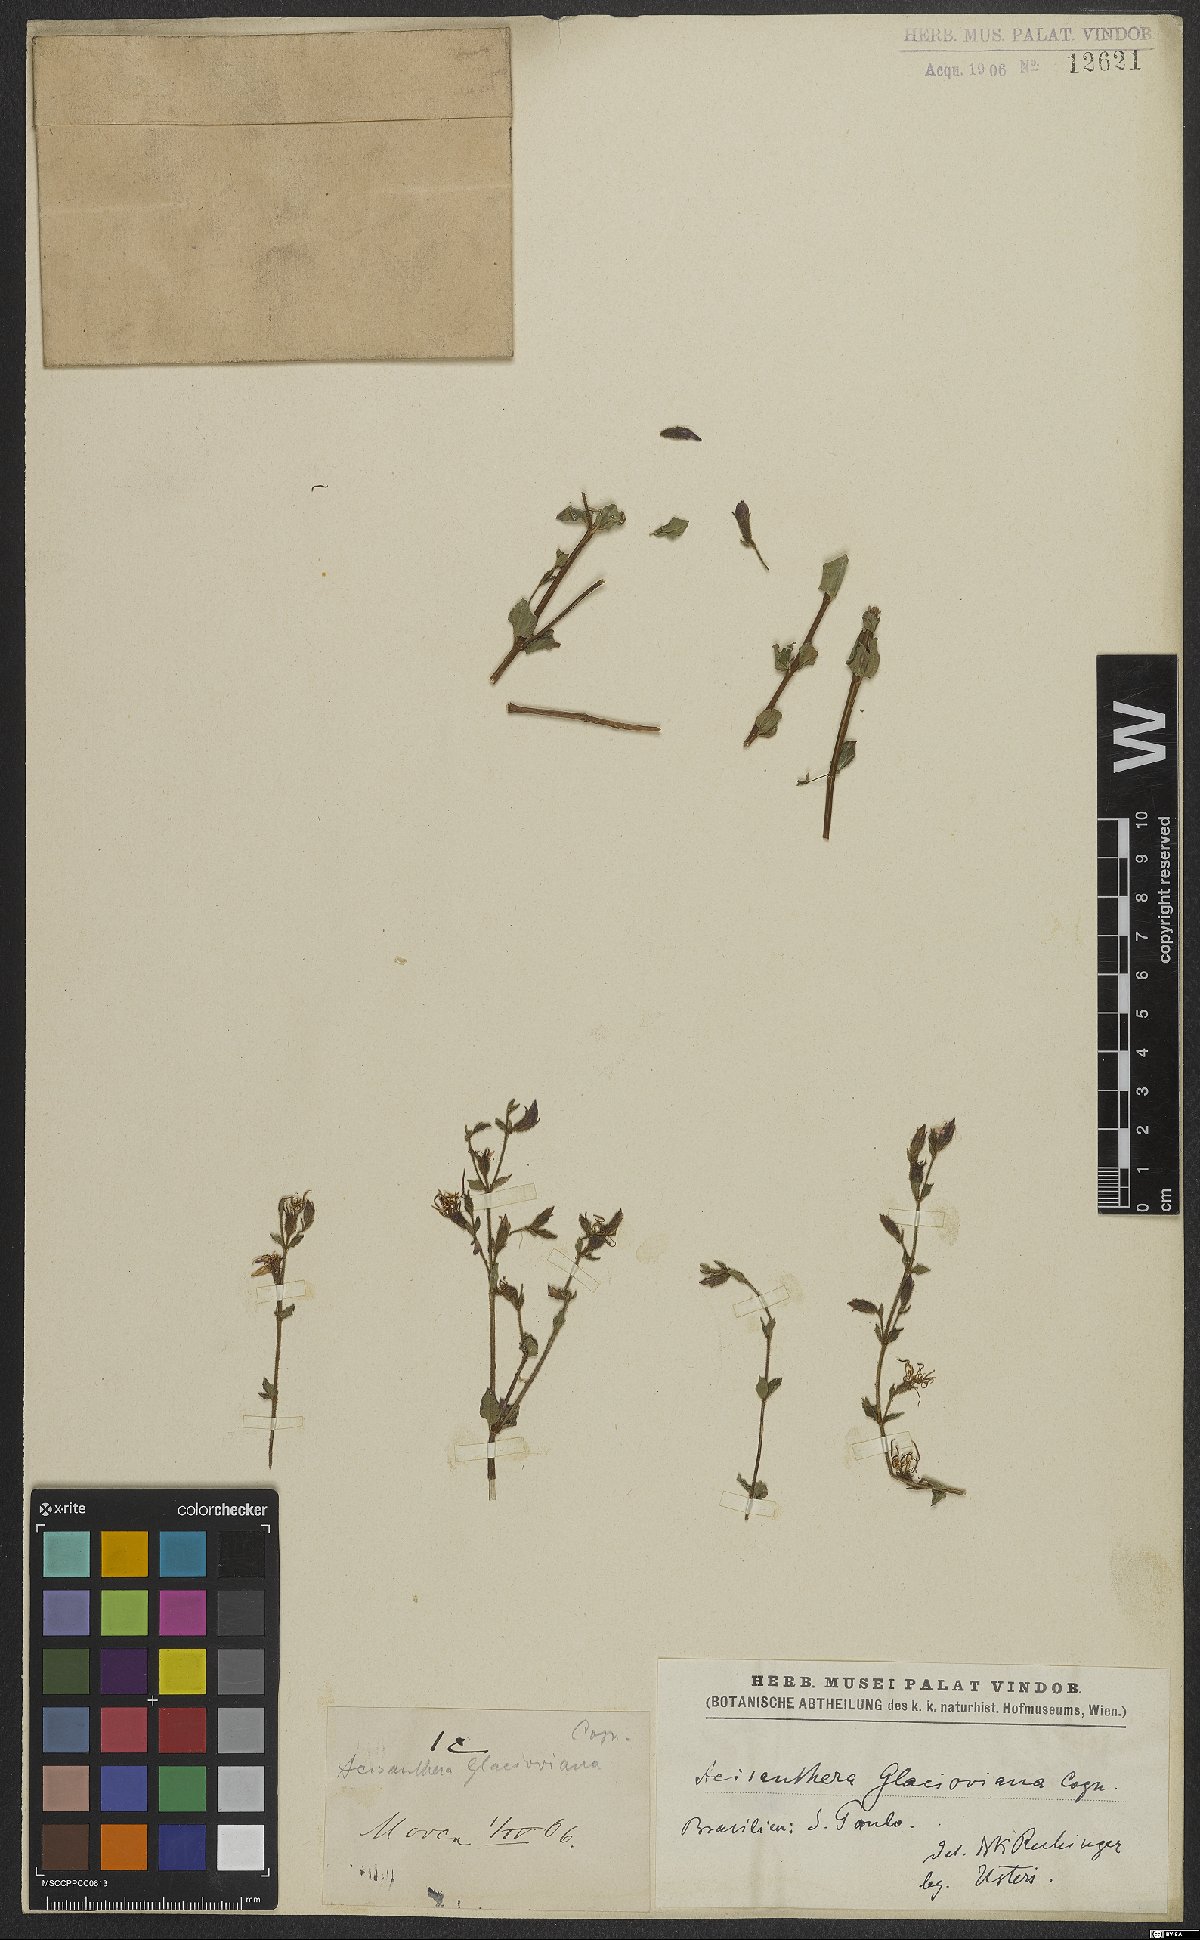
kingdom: Plantae
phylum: Tracheophyta
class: Magnoliopsida
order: Myrtales
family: Melastomataceae
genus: Acisanthera
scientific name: Acisanthera glazioviana
